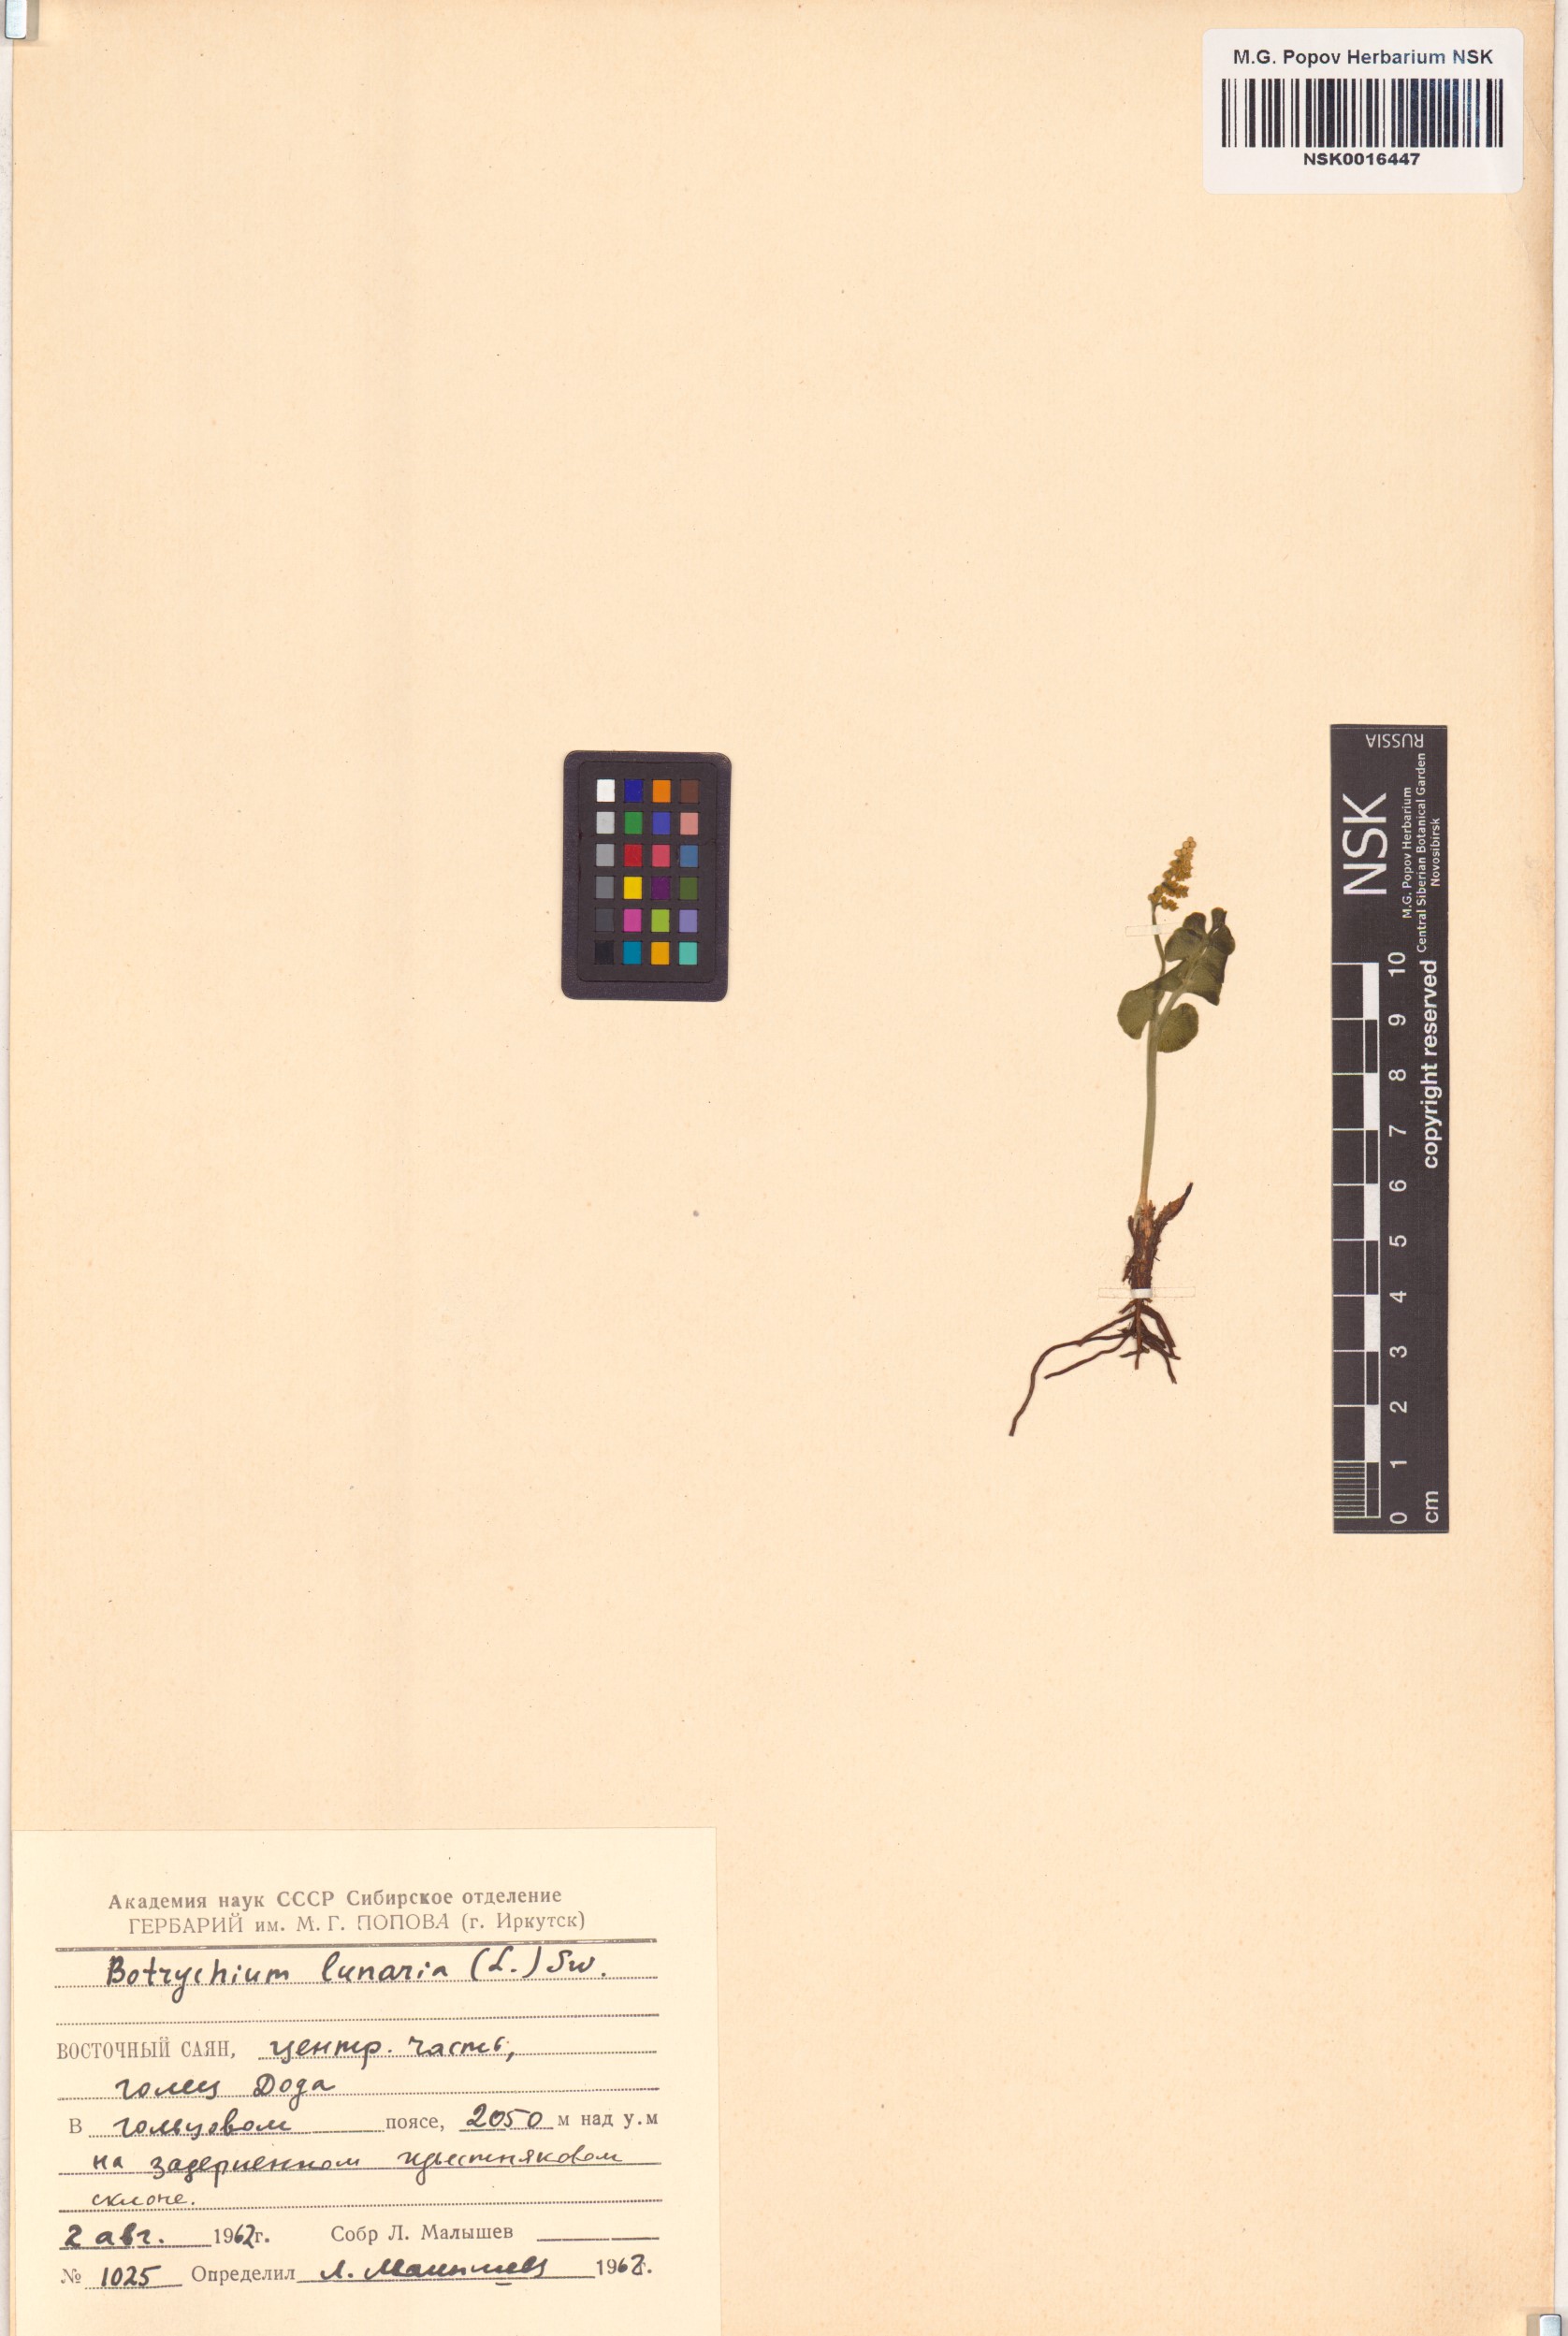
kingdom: Plantae
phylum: Tracheophyta
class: Polypodiopsida
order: Ophioglossales
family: Ophioglossaceae
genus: Botrychium
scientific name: Botrychium lunaria
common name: Moonwort
